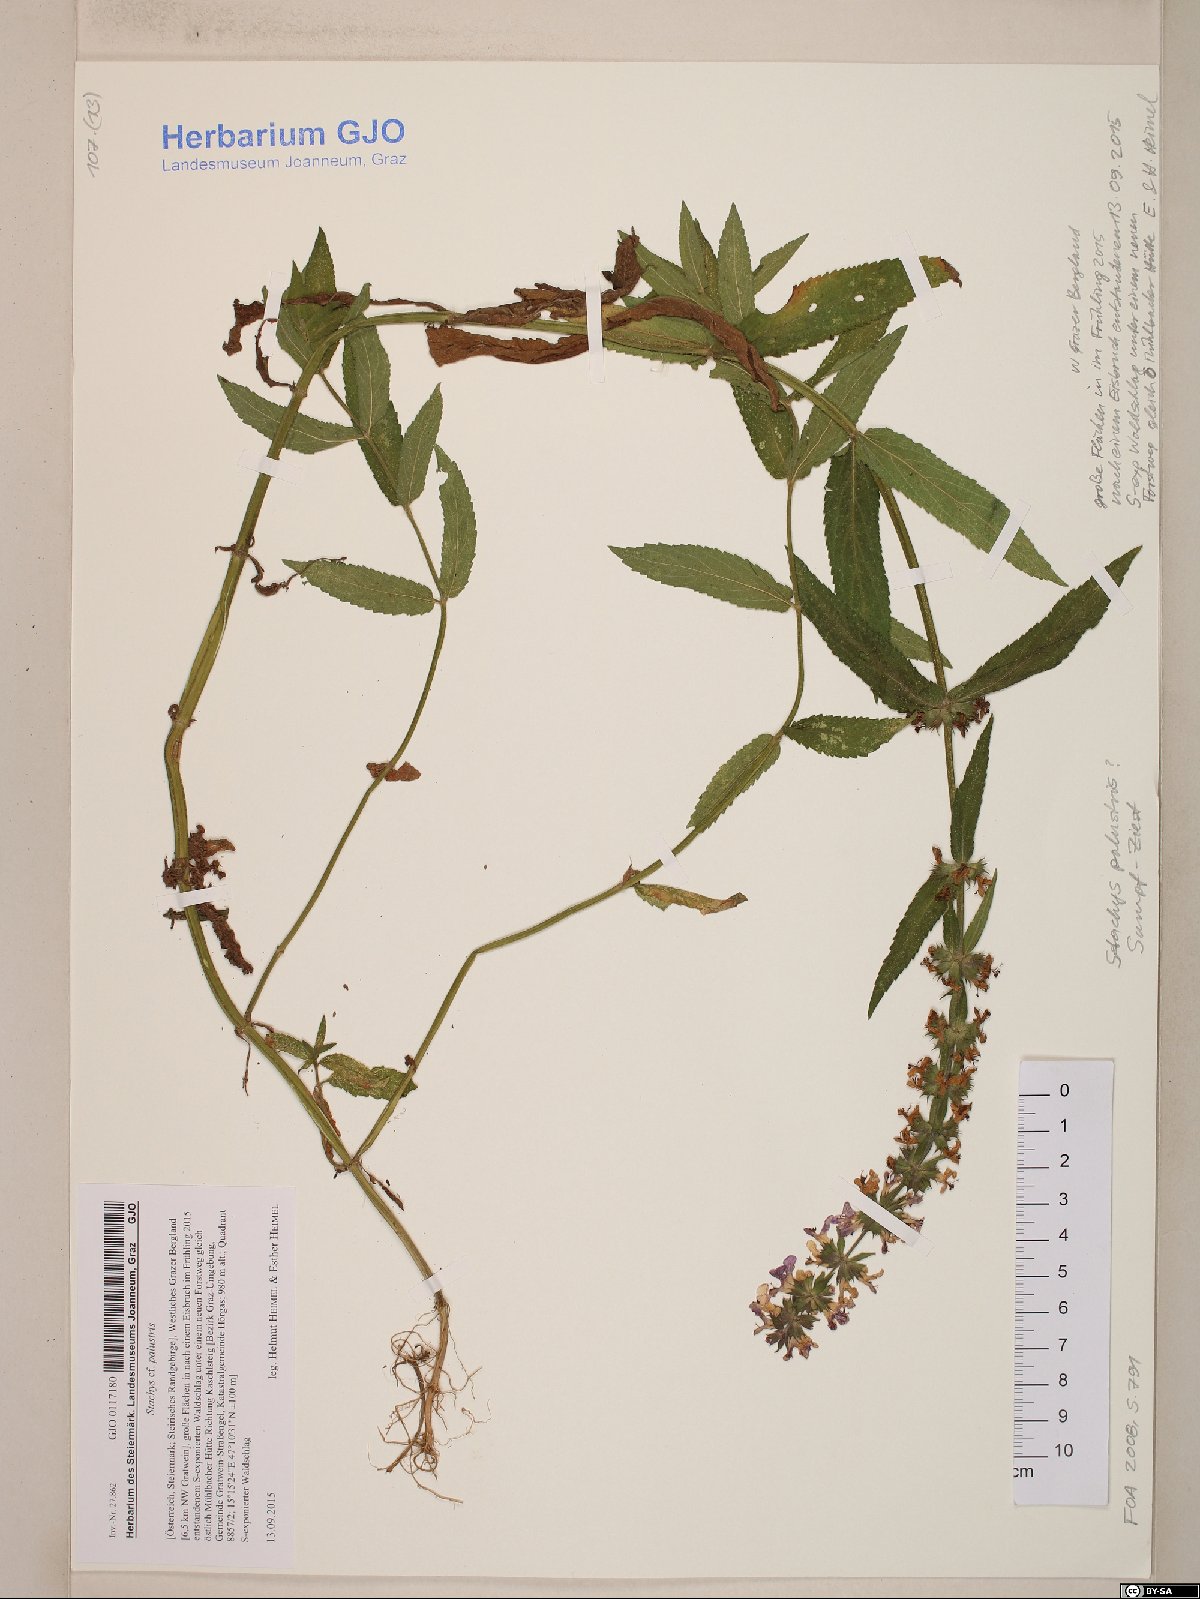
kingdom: Plantae
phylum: Tracheophyta
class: Magnoliopsida
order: Lamiales
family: Lamiaceae
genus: Stachys
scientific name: Stachys palustris
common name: Marsh woundwort
